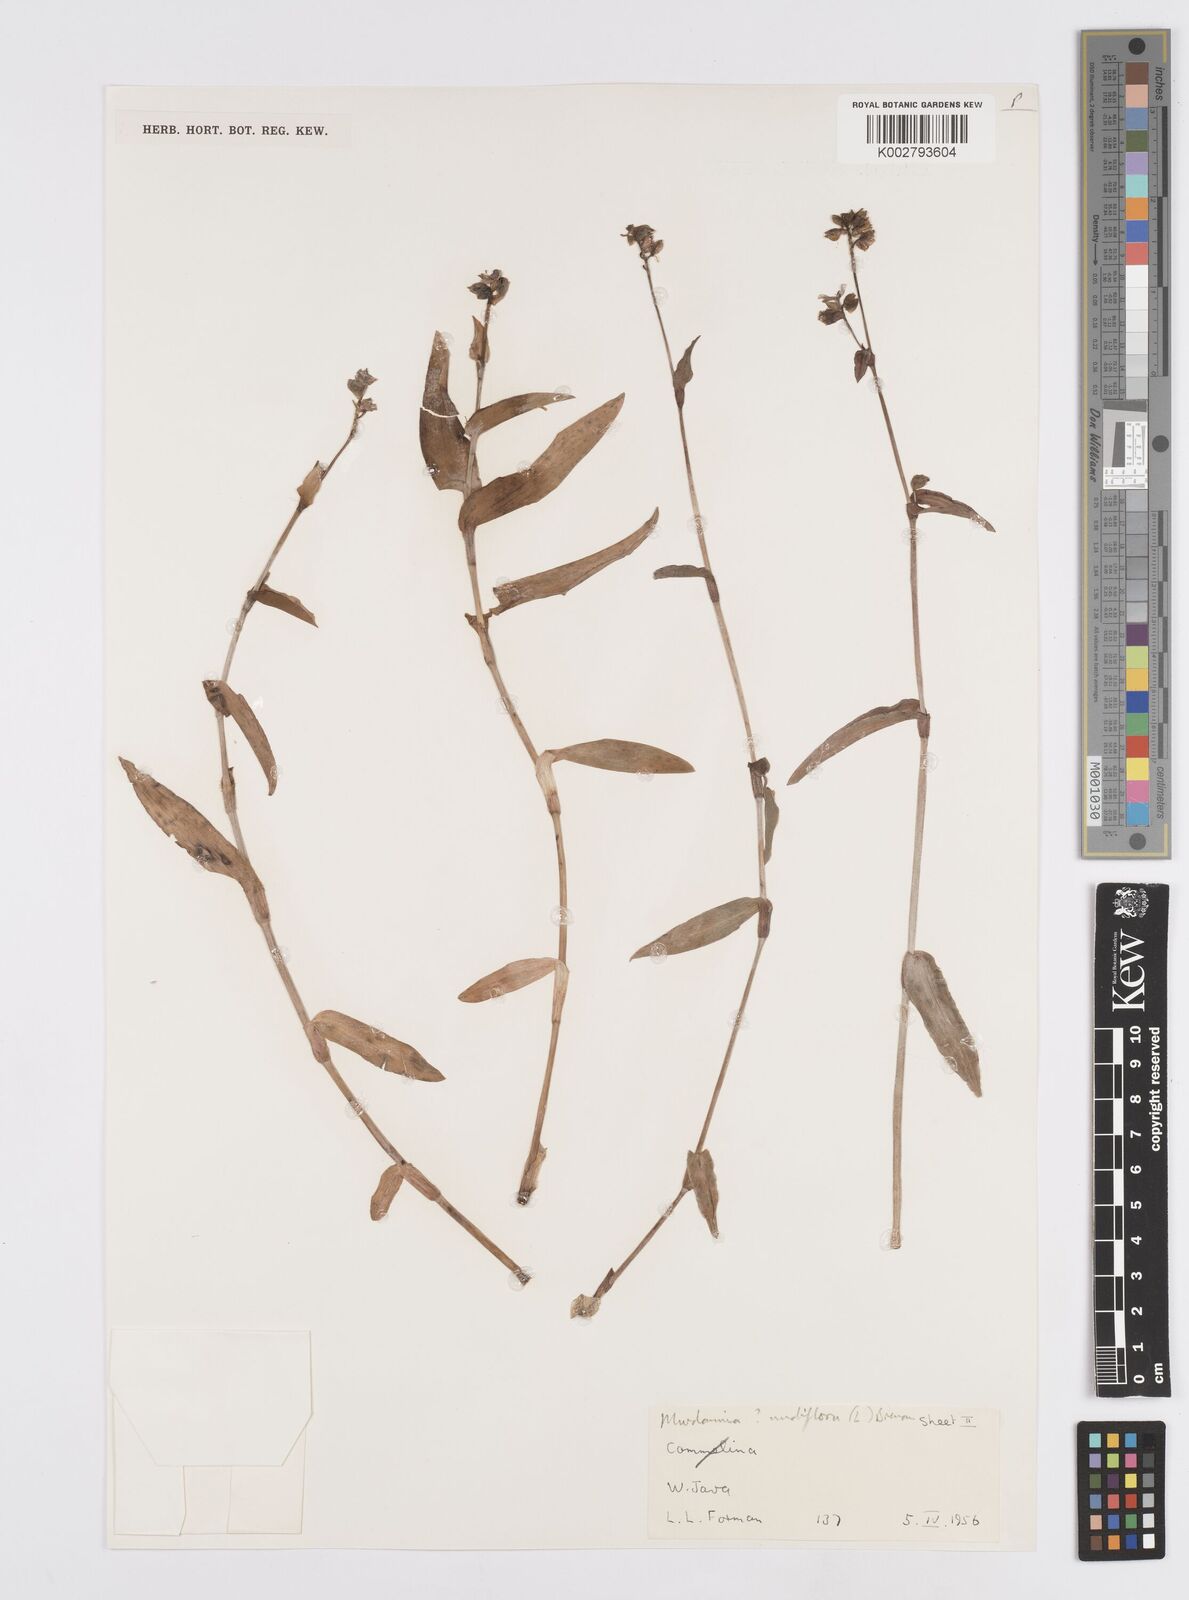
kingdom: Plantae
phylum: Tracheophyta
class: Liliopsida
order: Commelinales
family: Commelinaceae
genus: Murdannia
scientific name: Murdannia nudiflora
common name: Nakedstem dewflower
